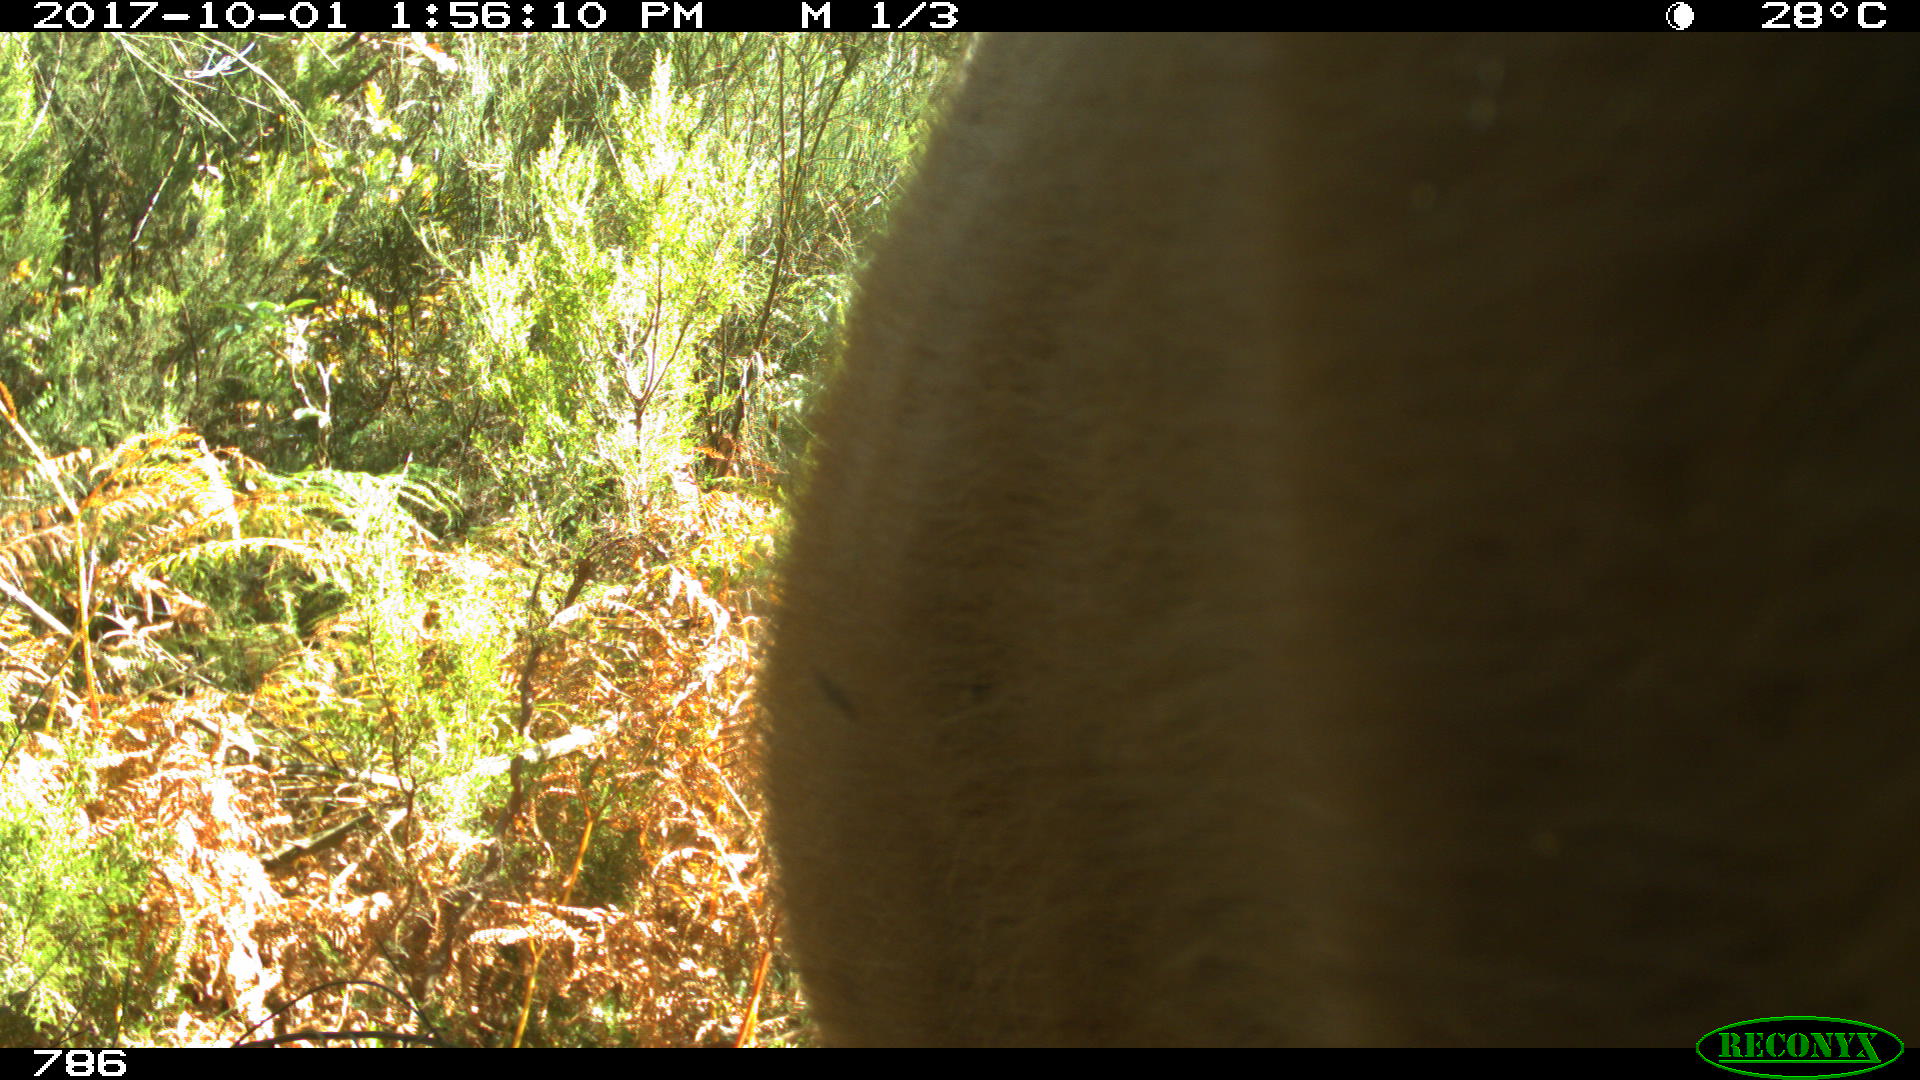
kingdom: Animalia
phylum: Chordata
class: Mammalia
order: Artiodactyla
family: Bovidae
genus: Bos
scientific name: Bos taurus
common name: Domesticated cattle
